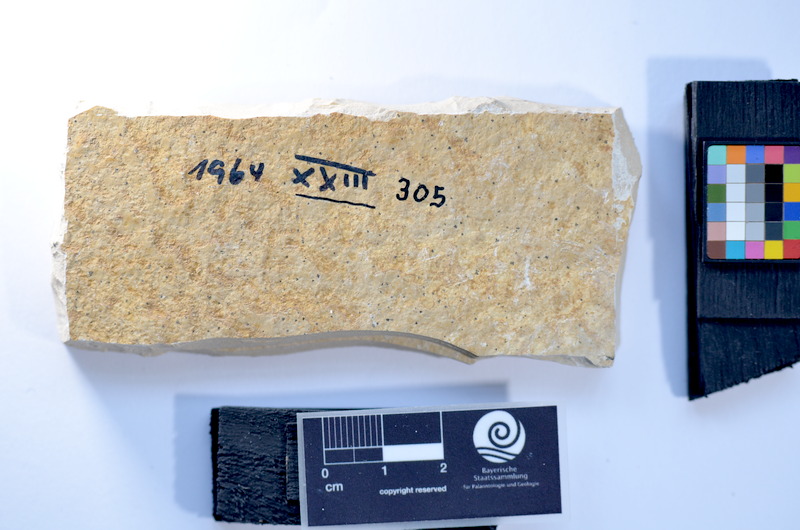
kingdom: Animalia
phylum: Chordata
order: Salmoniformes
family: Orthogonikleithridae
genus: Leptolepides
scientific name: Leptolepides
